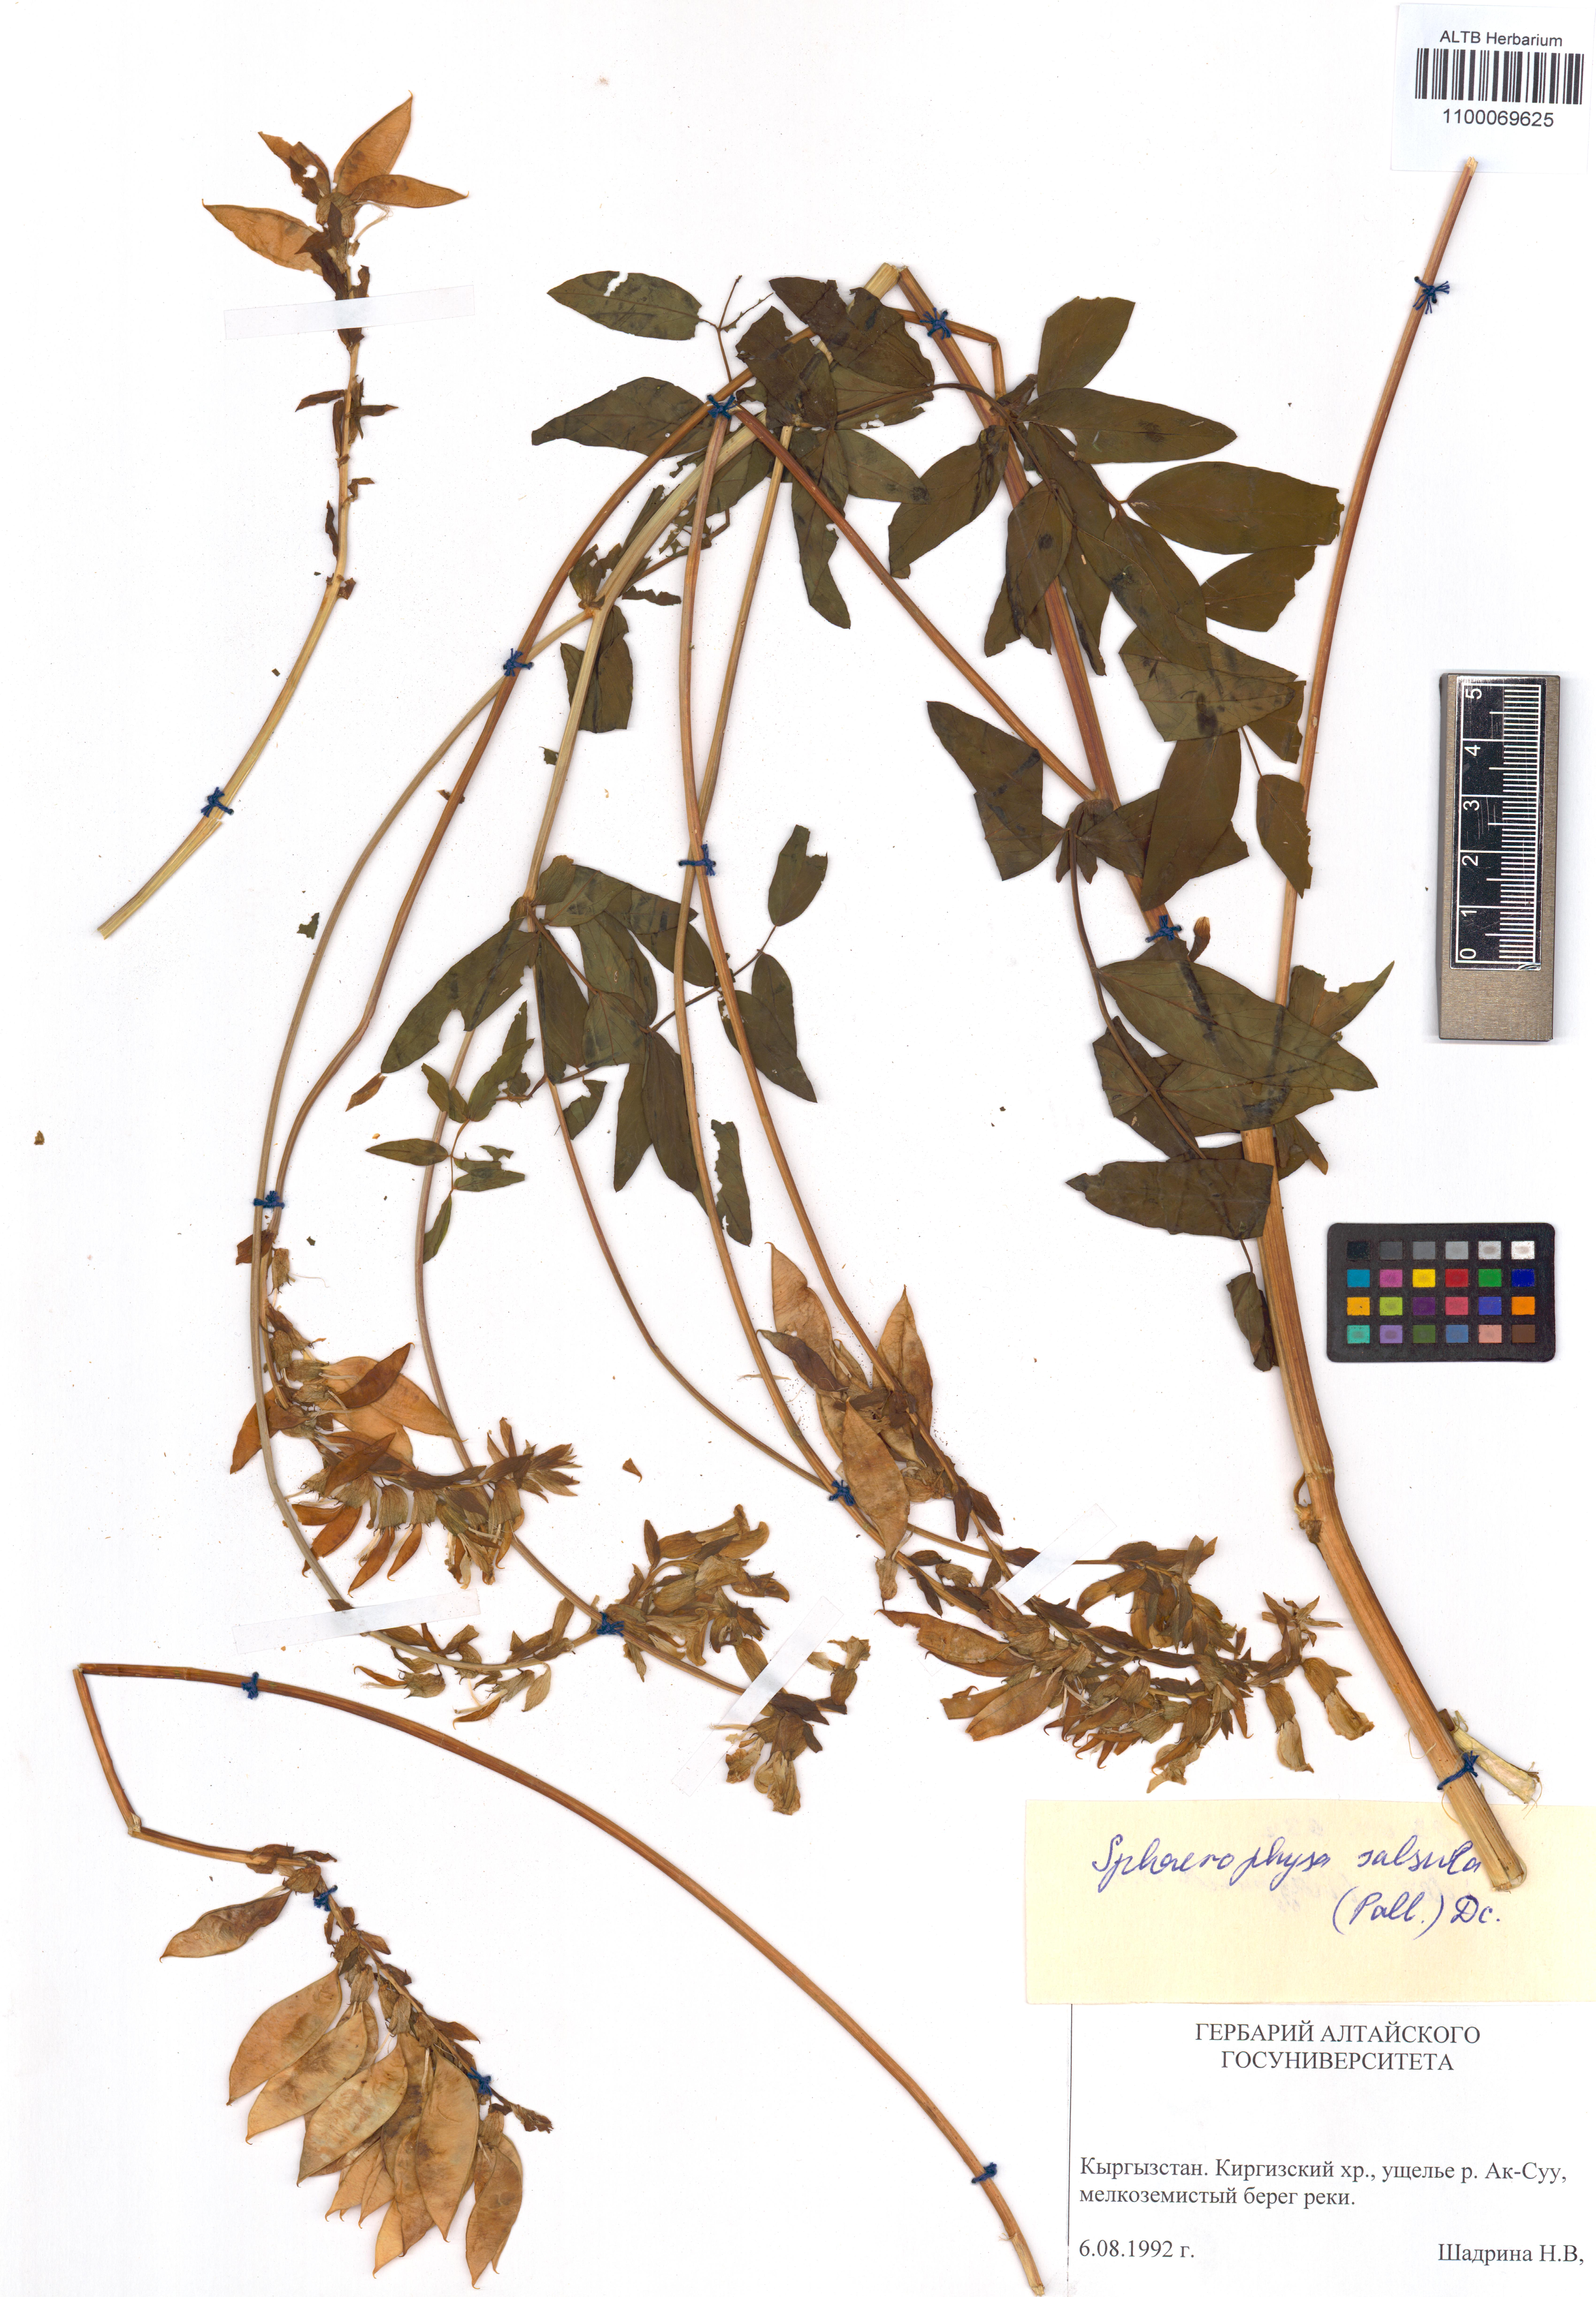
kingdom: Plantae
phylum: Tracheophyta
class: Magnoliopsida
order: Fabales
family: Fabaceae
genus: Sphaerophysa
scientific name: Sphaerophysa salsula
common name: Alkali swainsonpea
